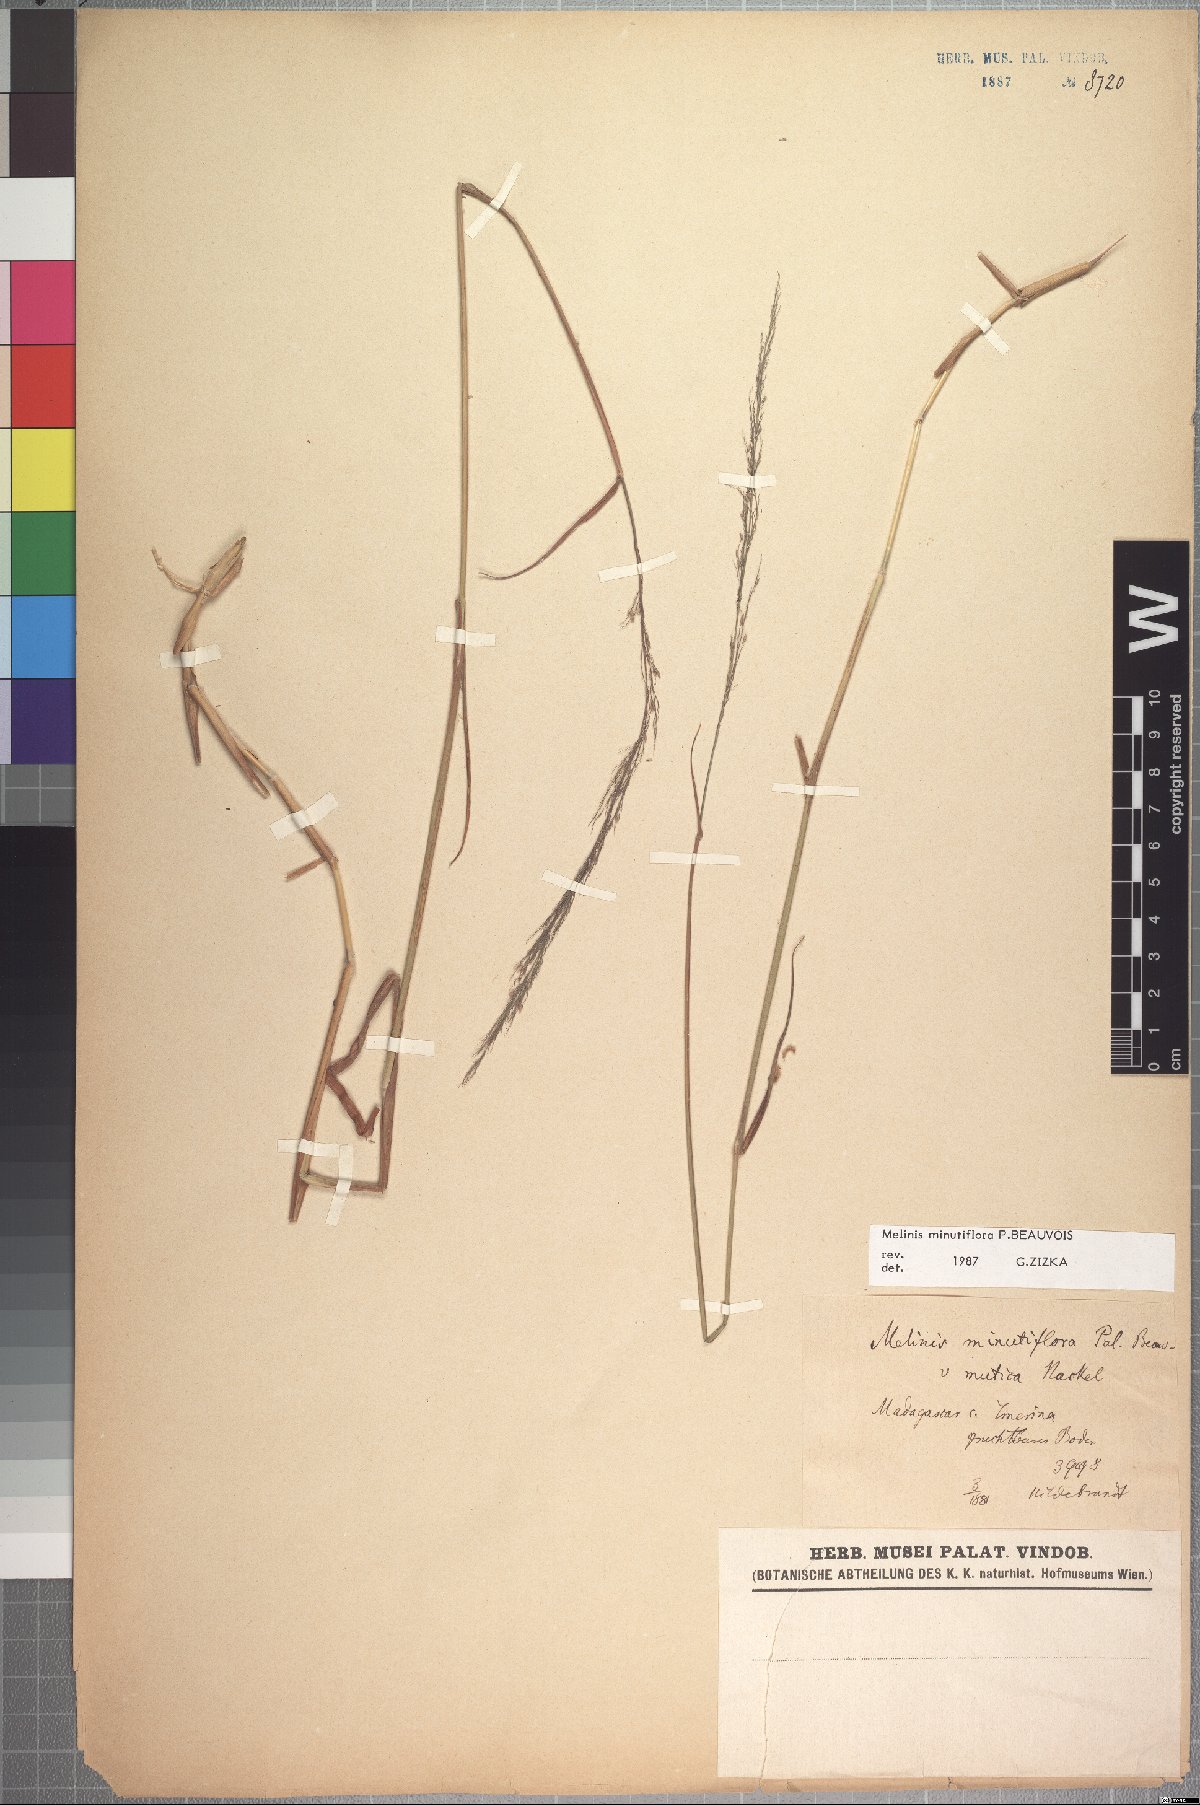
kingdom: Plantae
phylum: Tracheophyta
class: Liliopsida
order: Poales
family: Poaceae
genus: Melinis
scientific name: Melinis minutiflora
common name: Molassesgrass
